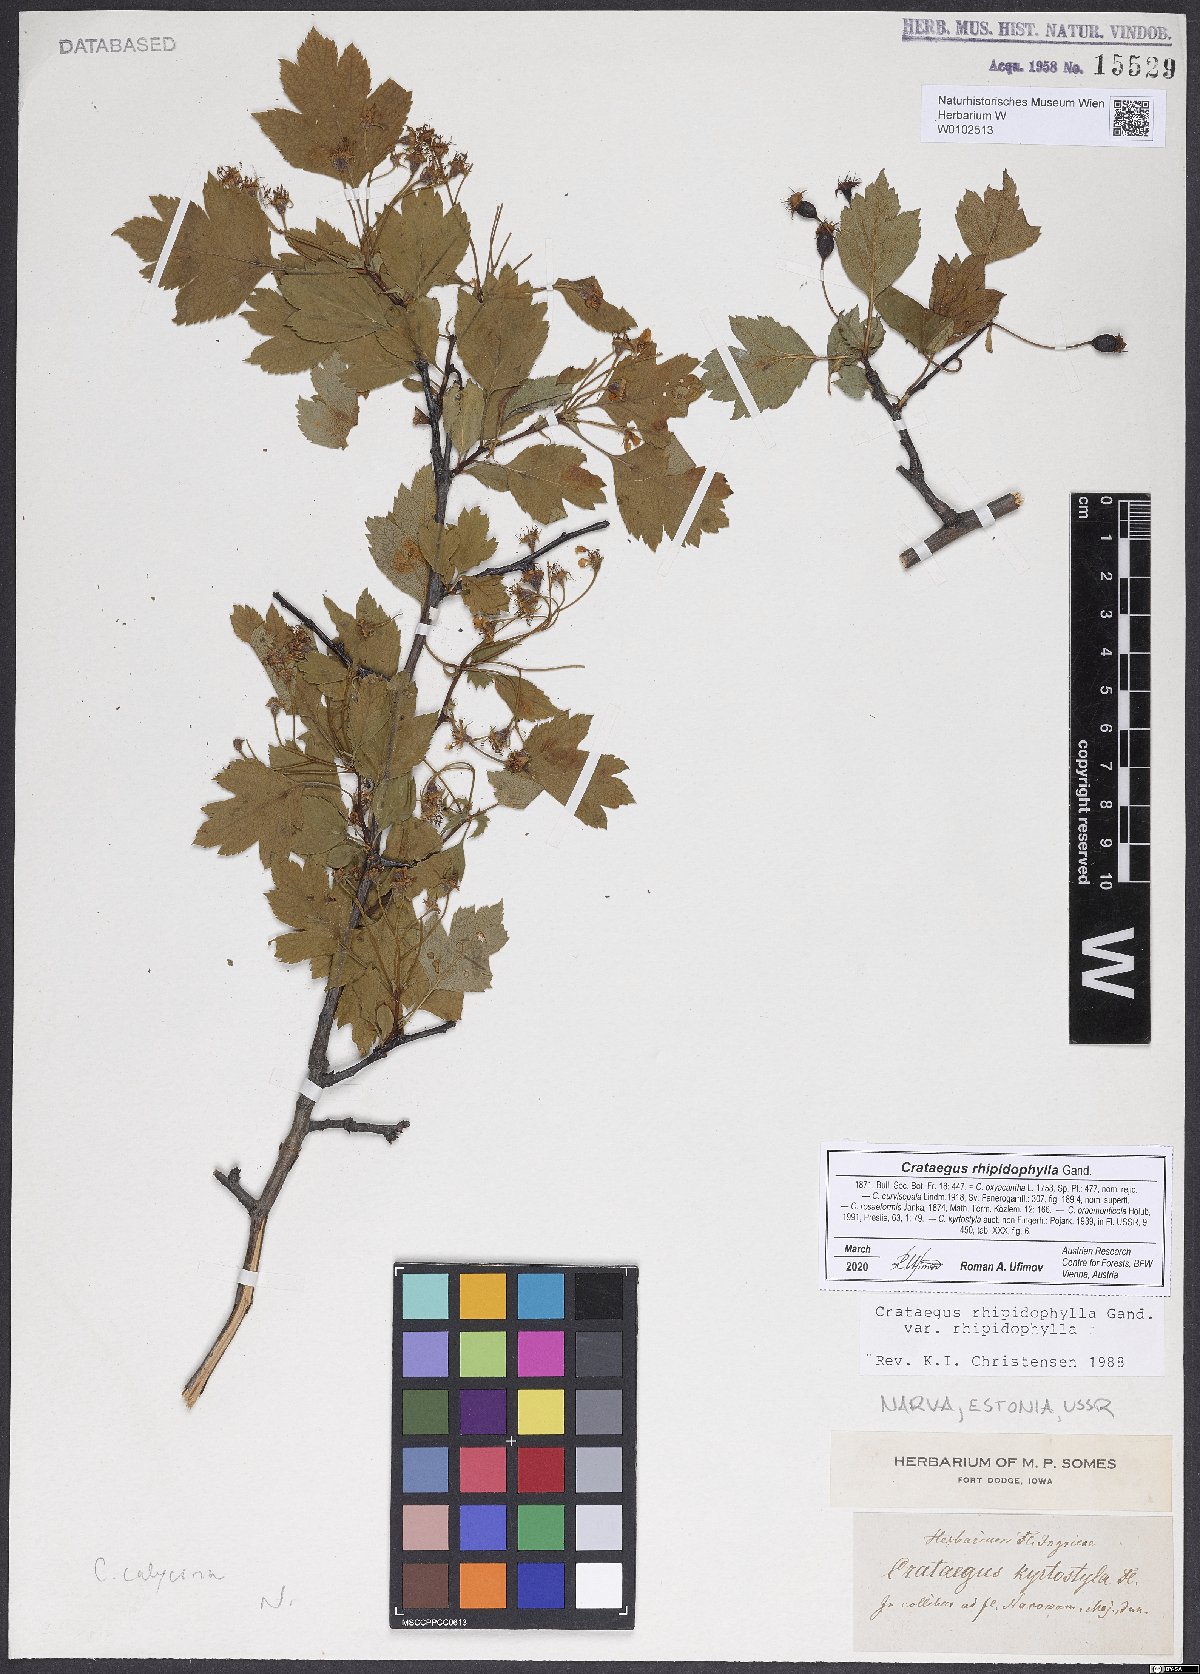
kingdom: Plantae
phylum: Tracheophyta
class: Magnoliopsida
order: Rosales
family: Rosaceae
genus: Crataegus
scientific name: Crataegus rhipidophylla
